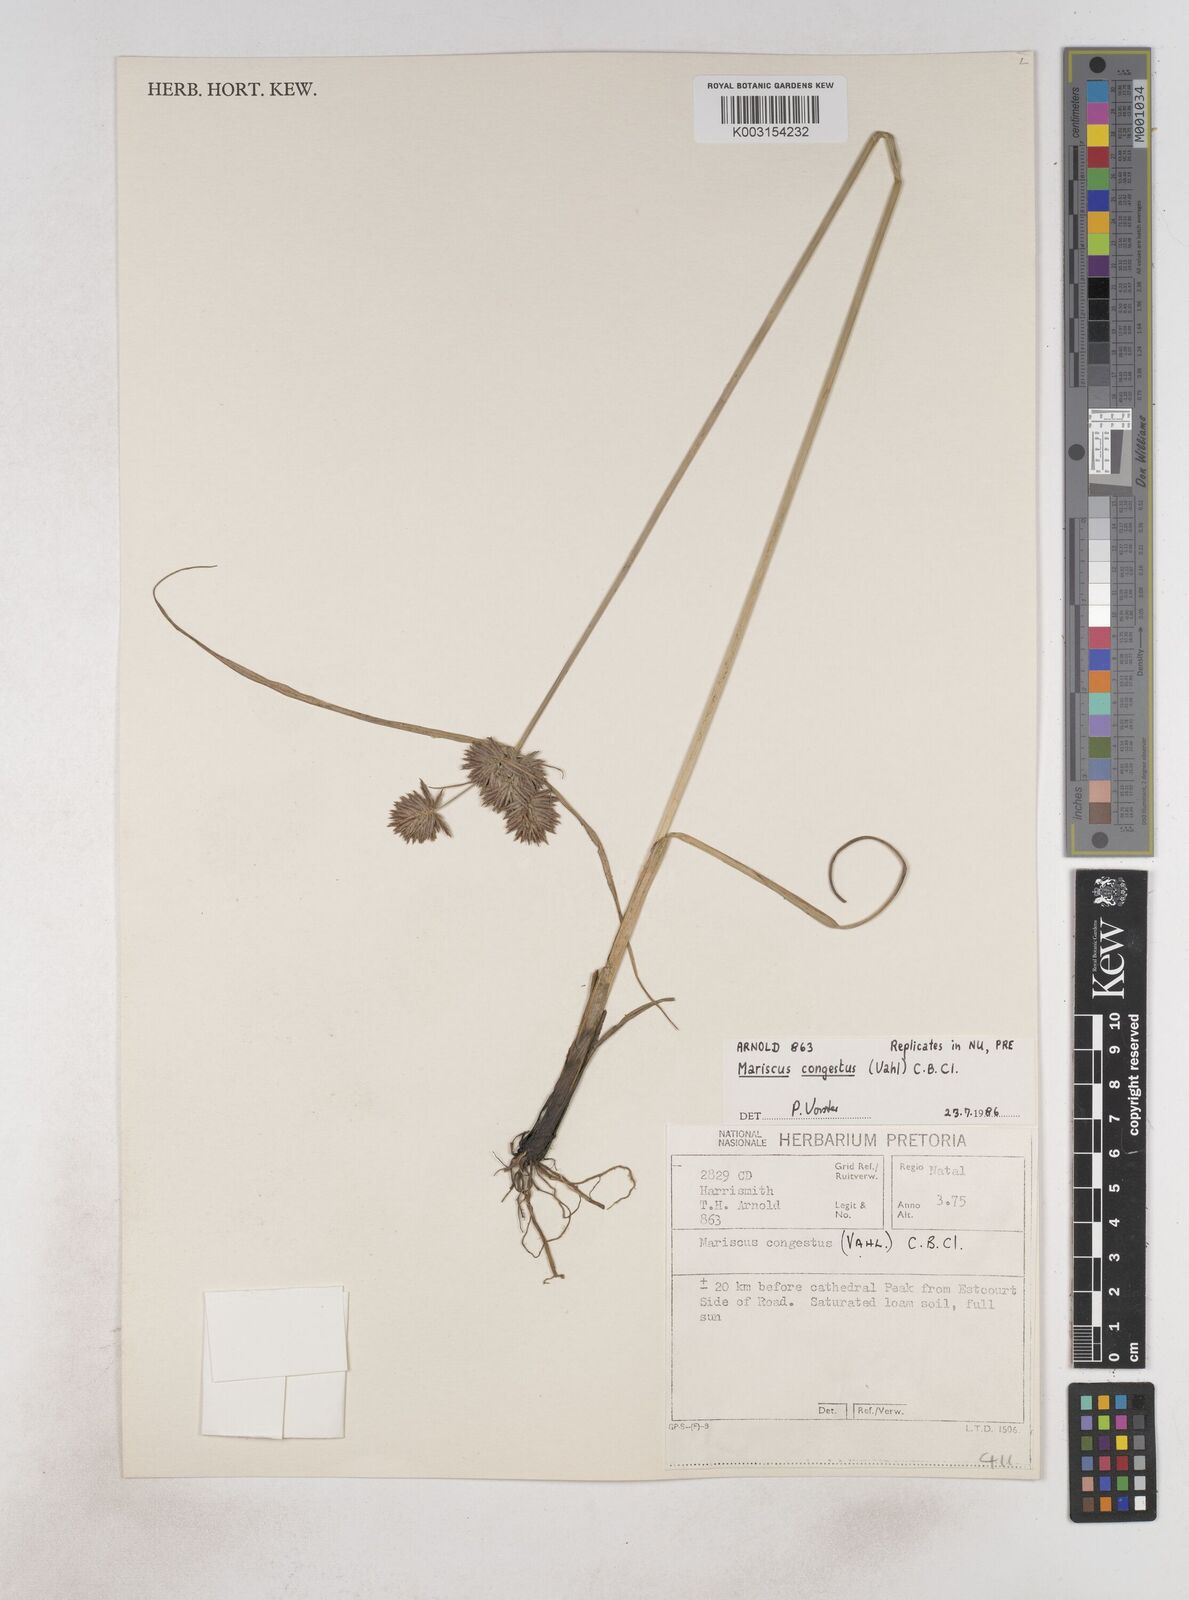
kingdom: Plantae
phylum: Tracheophyta
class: Liliopsida
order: Poales
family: Cyperaceae
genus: Cyperus
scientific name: Cyperus congestus
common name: Dense flat sedge
